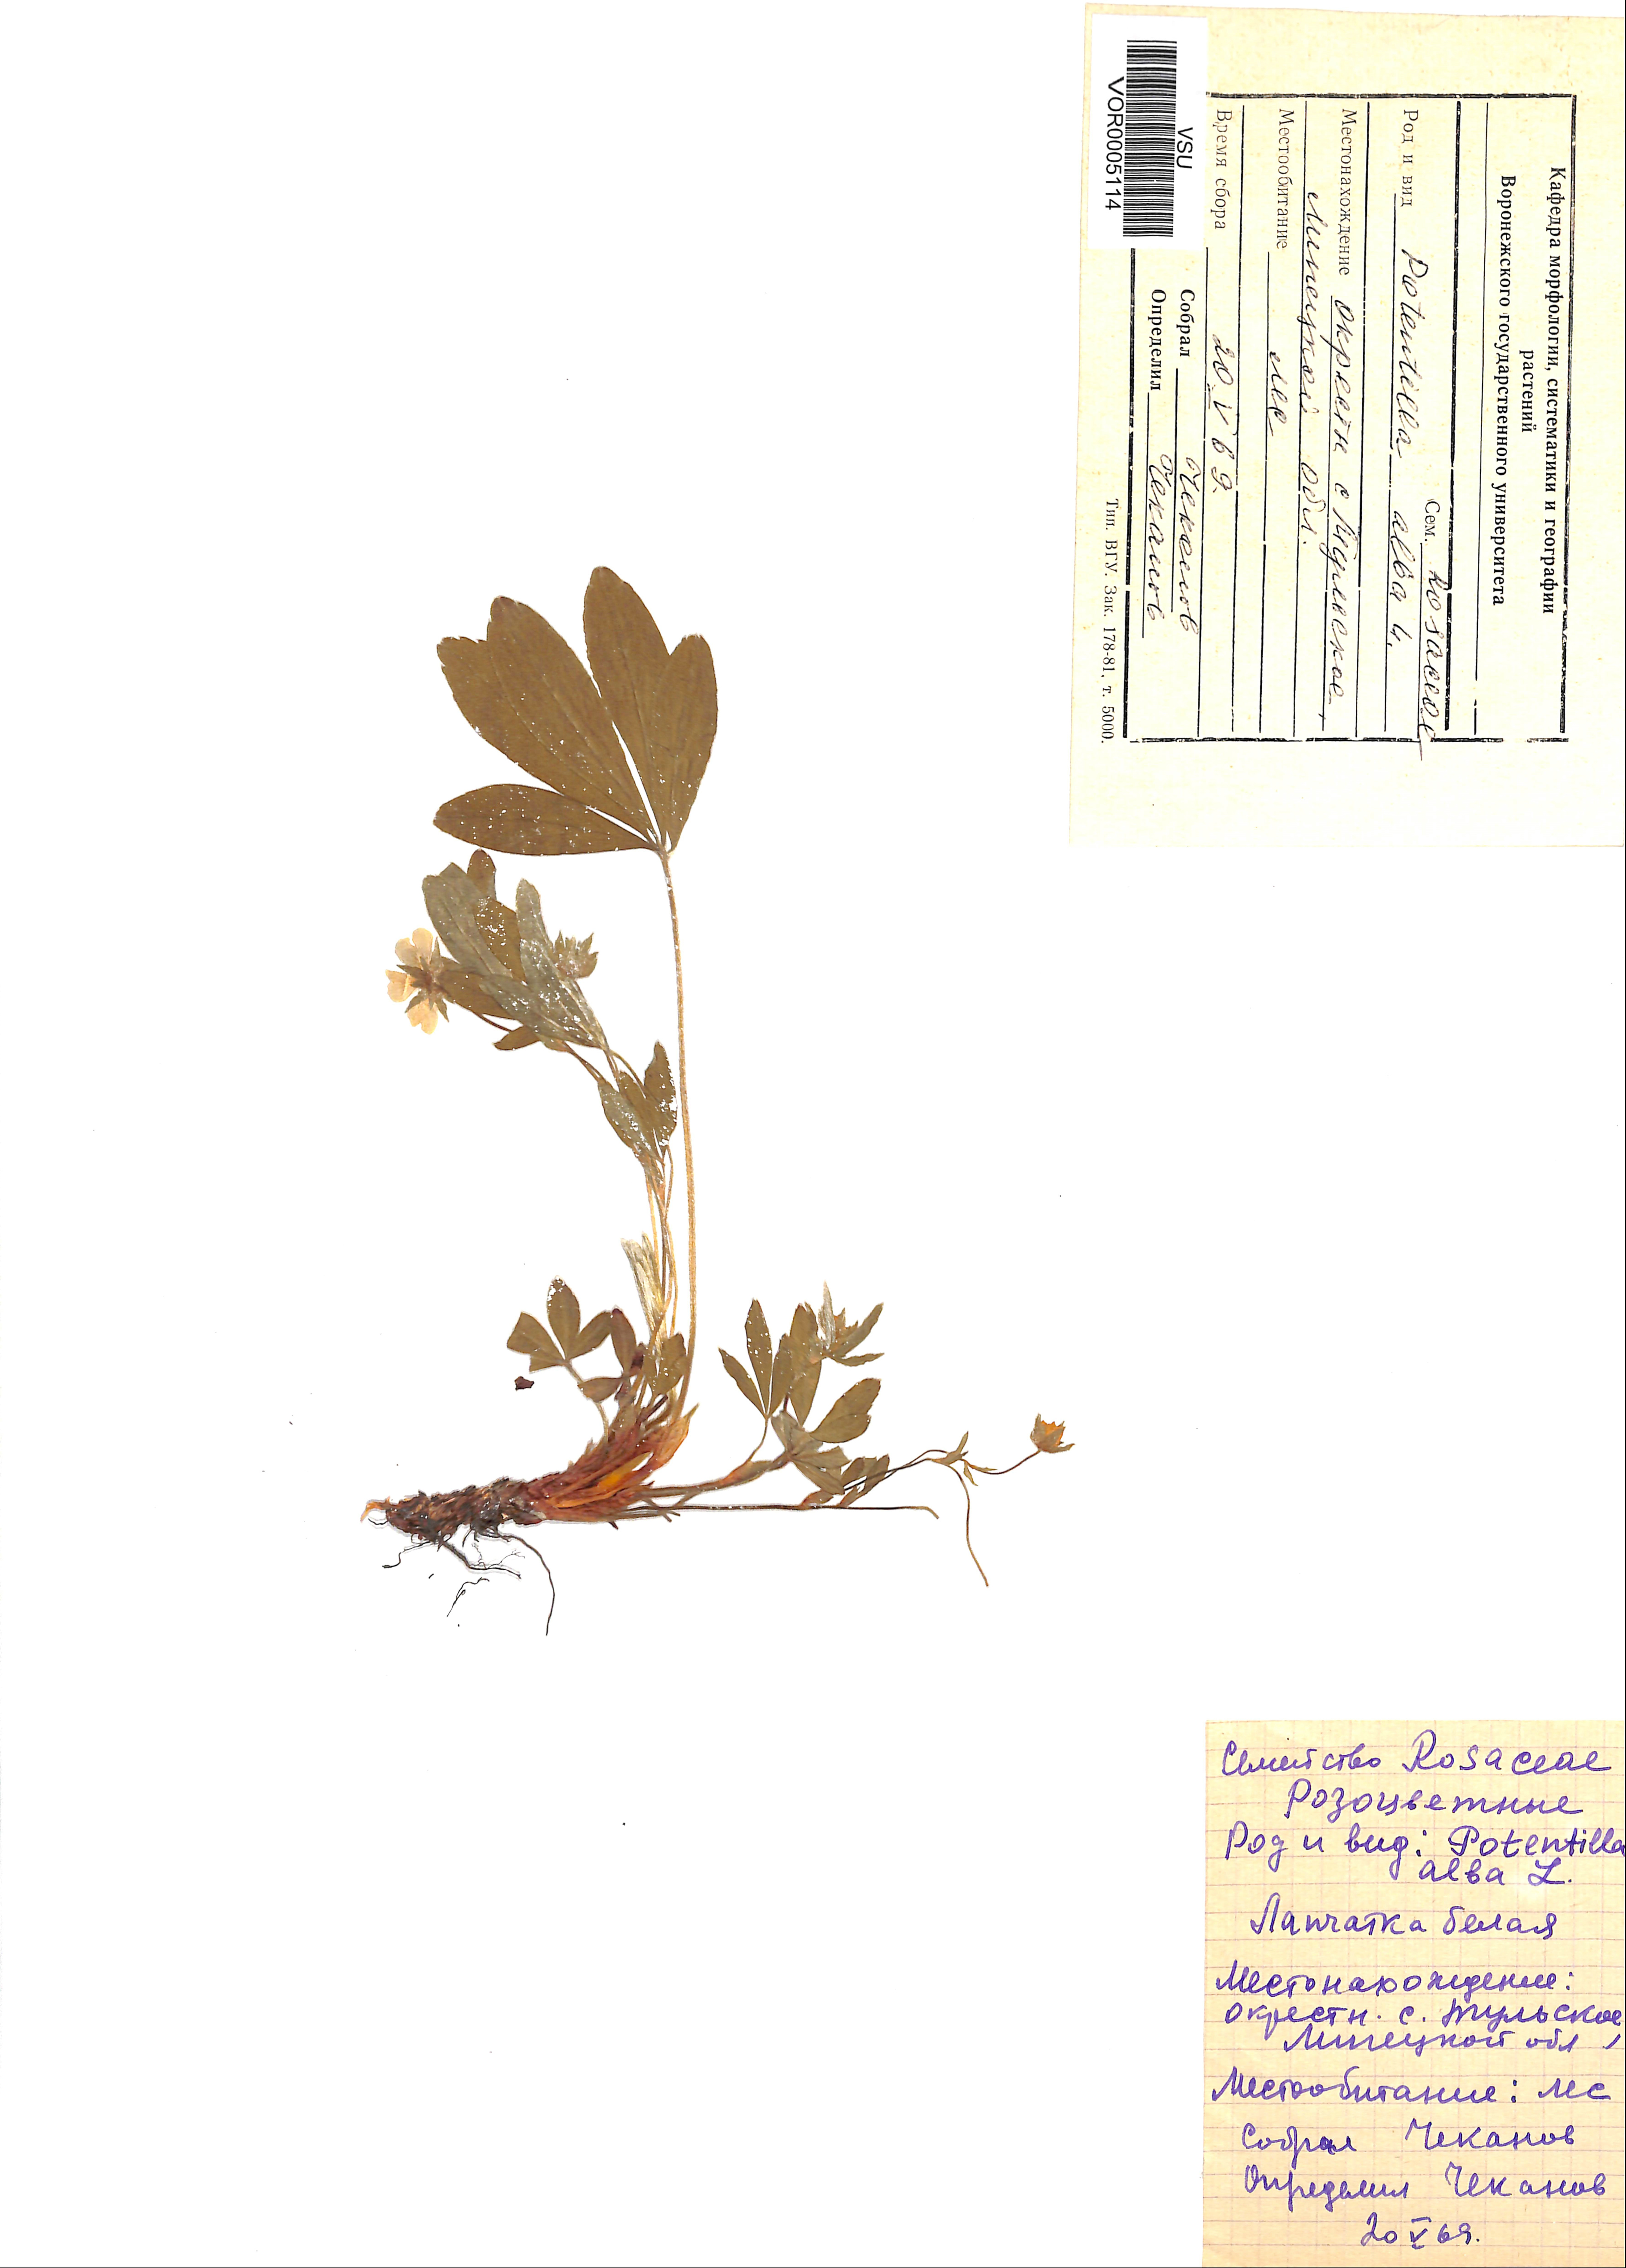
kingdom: Plantae
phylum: Tracheophyta
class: Magnoliopsida
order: Rosales
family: Rosaceae
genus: Potentilla
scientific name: Potentilla alba
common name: White cinquefoil
